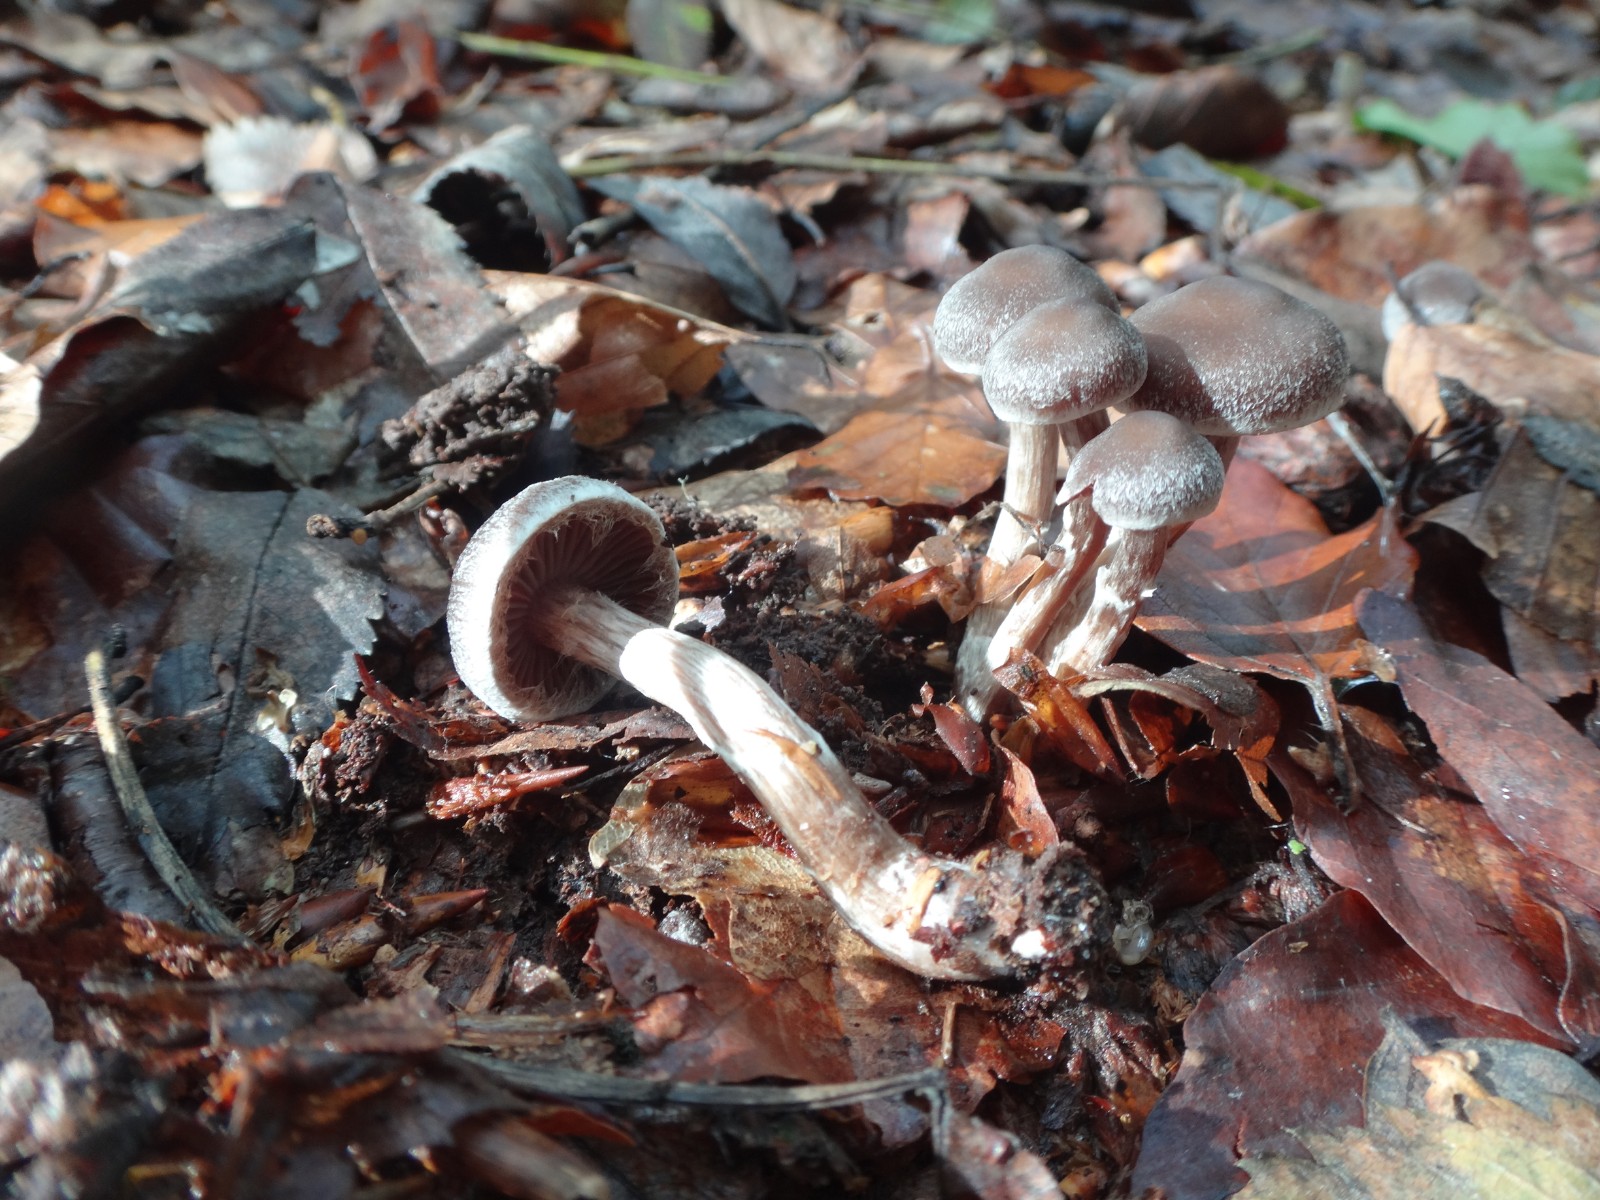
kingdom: Fungi
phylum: Basidiomycota
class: Agaricomycetes
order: Agaricales
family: Cortinariaceae
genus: Cortinarius
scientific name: Cortinarius
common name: pelargonie-slørhat
